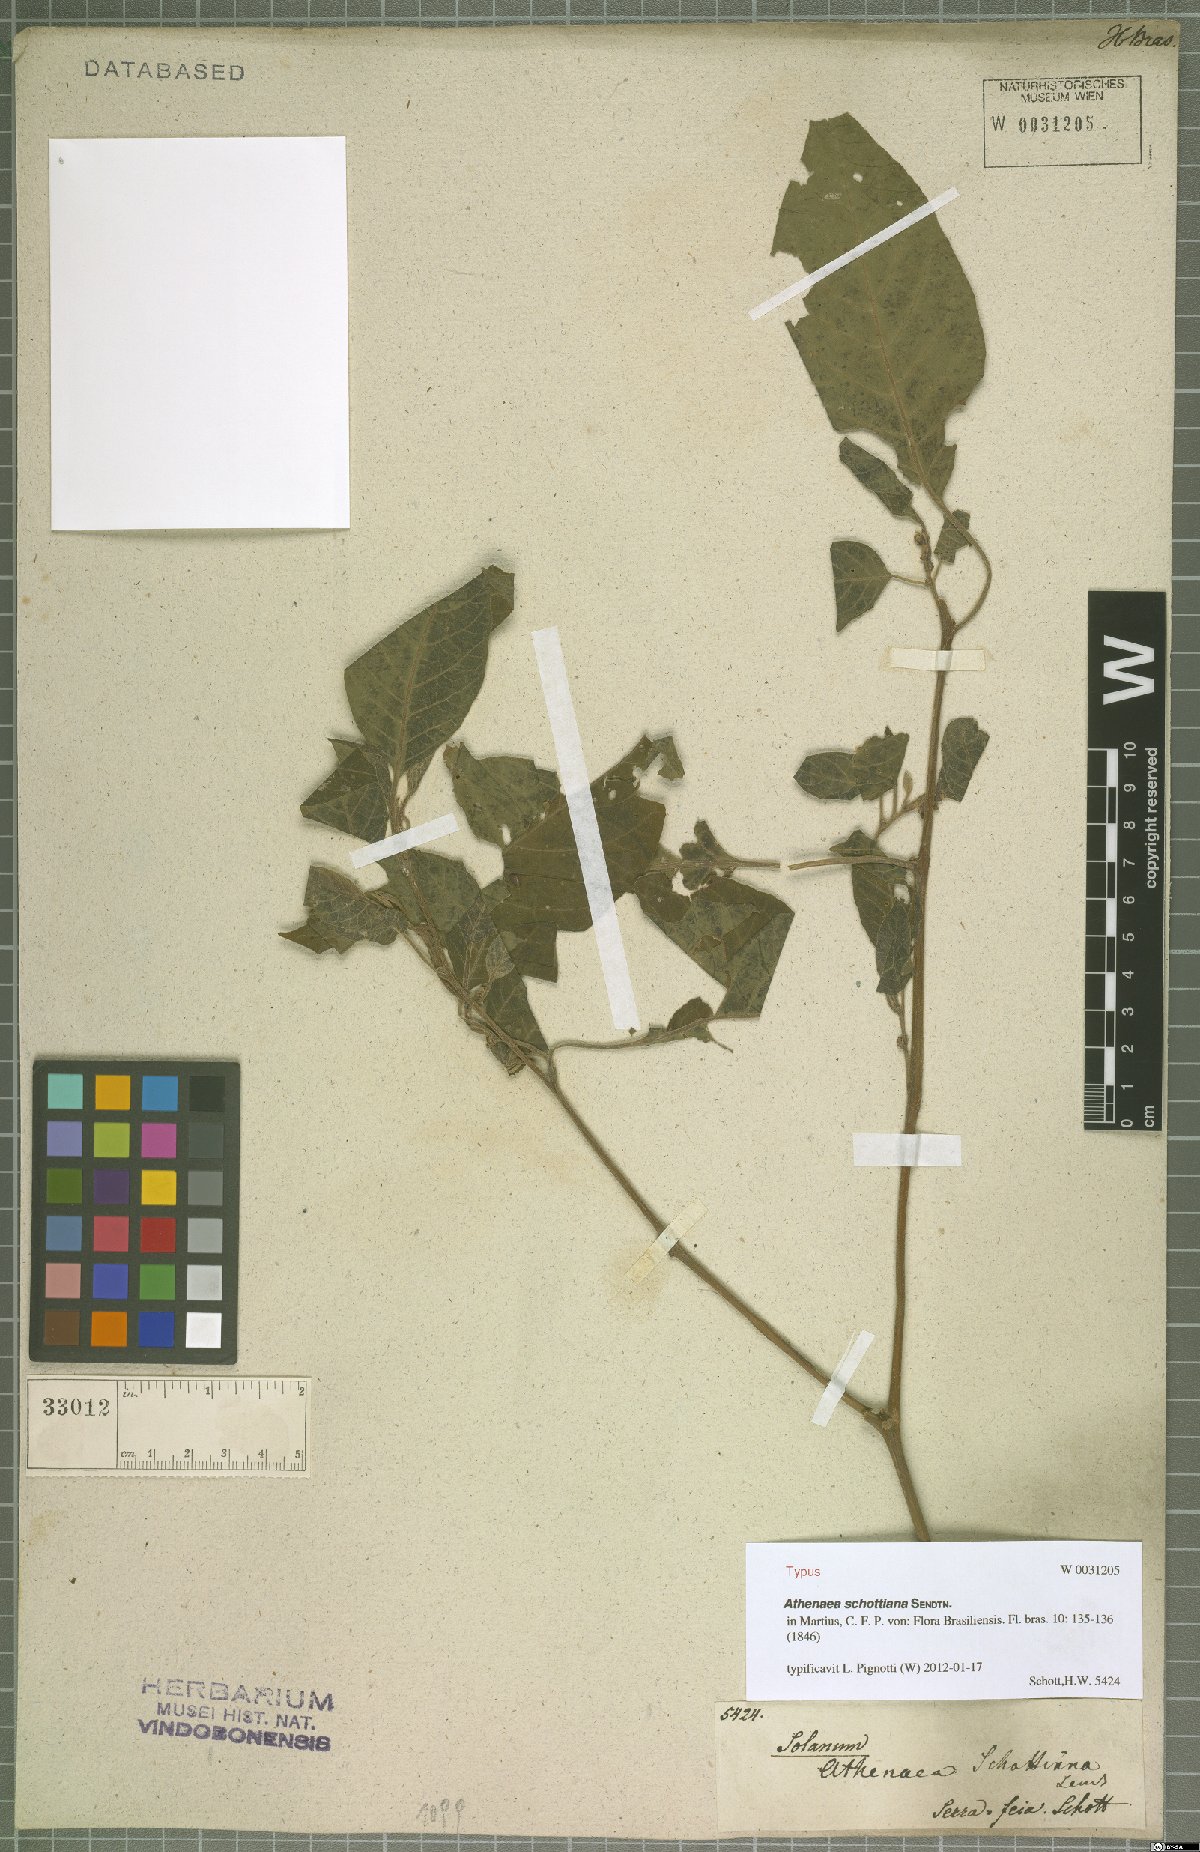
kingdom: Plantae
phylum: Tracheophyta
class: Magnoliopsida
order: Solanales
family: Solanaceae
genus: Athenaea
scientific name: Athenaea pogogena
